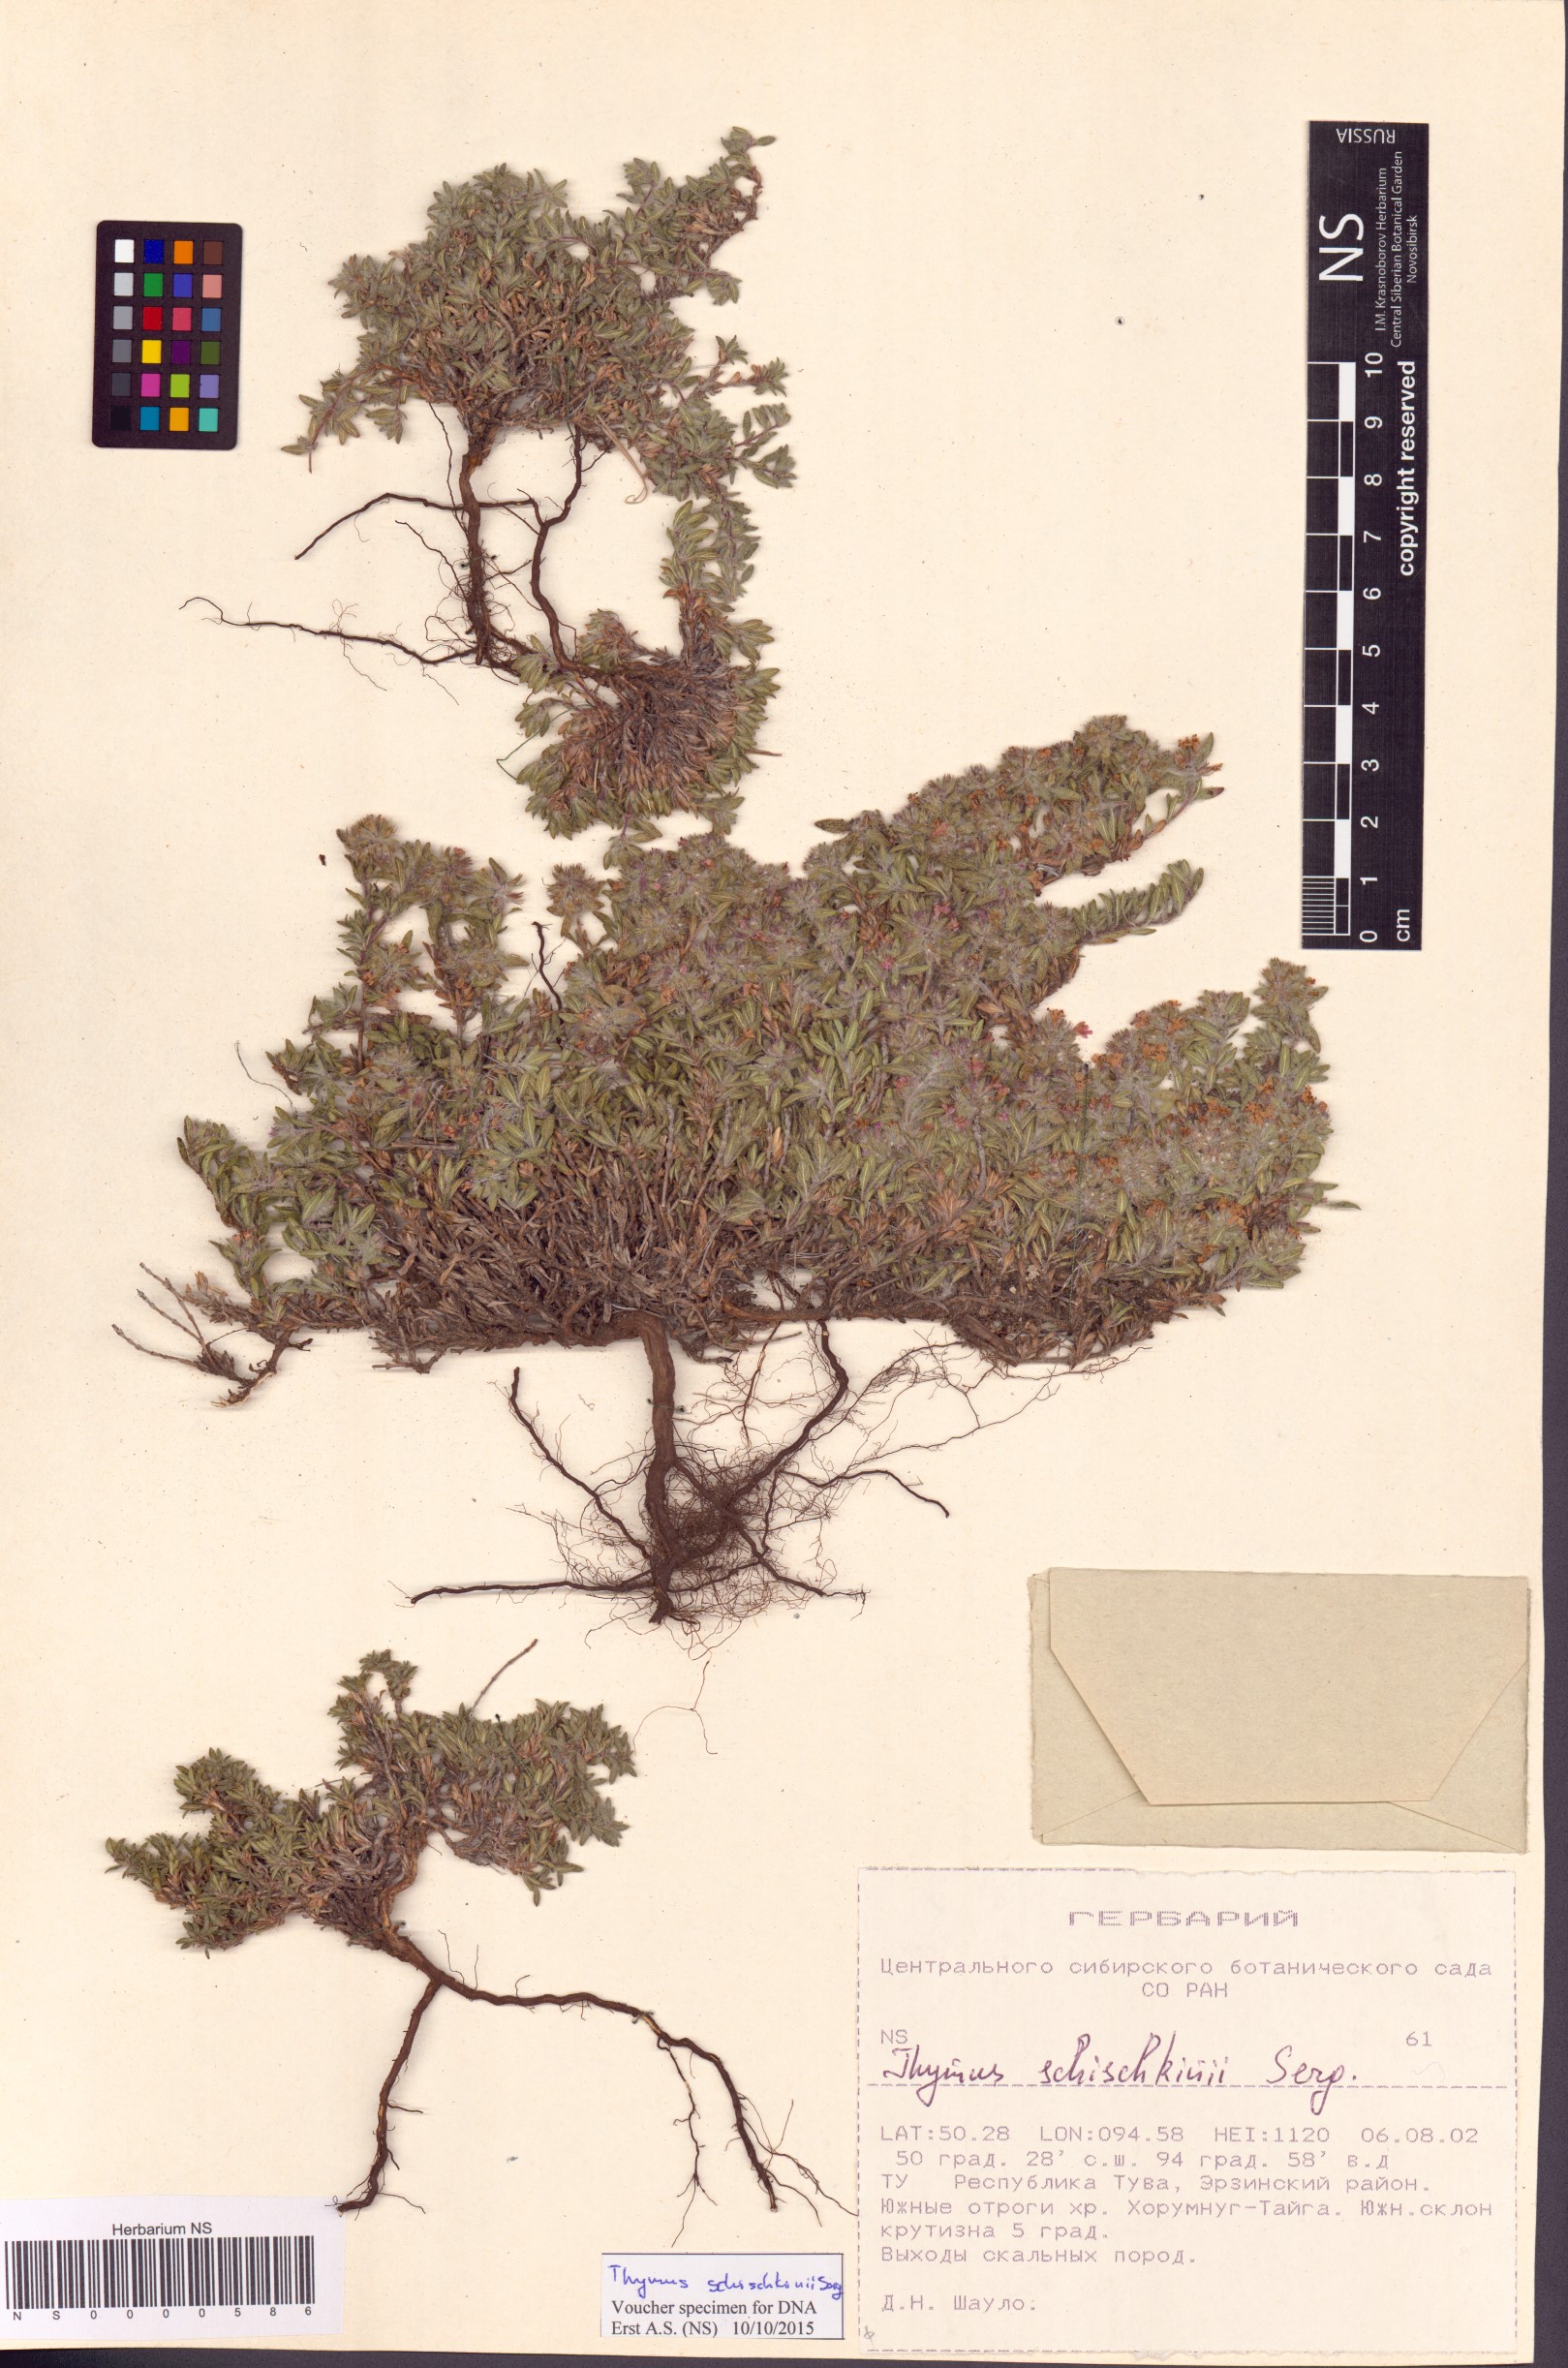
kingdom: Plantae
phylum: Tracheophyta
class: Magnoliopsida
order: Lamiales
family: Lamiaceae
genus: Thymus
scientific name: Thymus schischkinii
